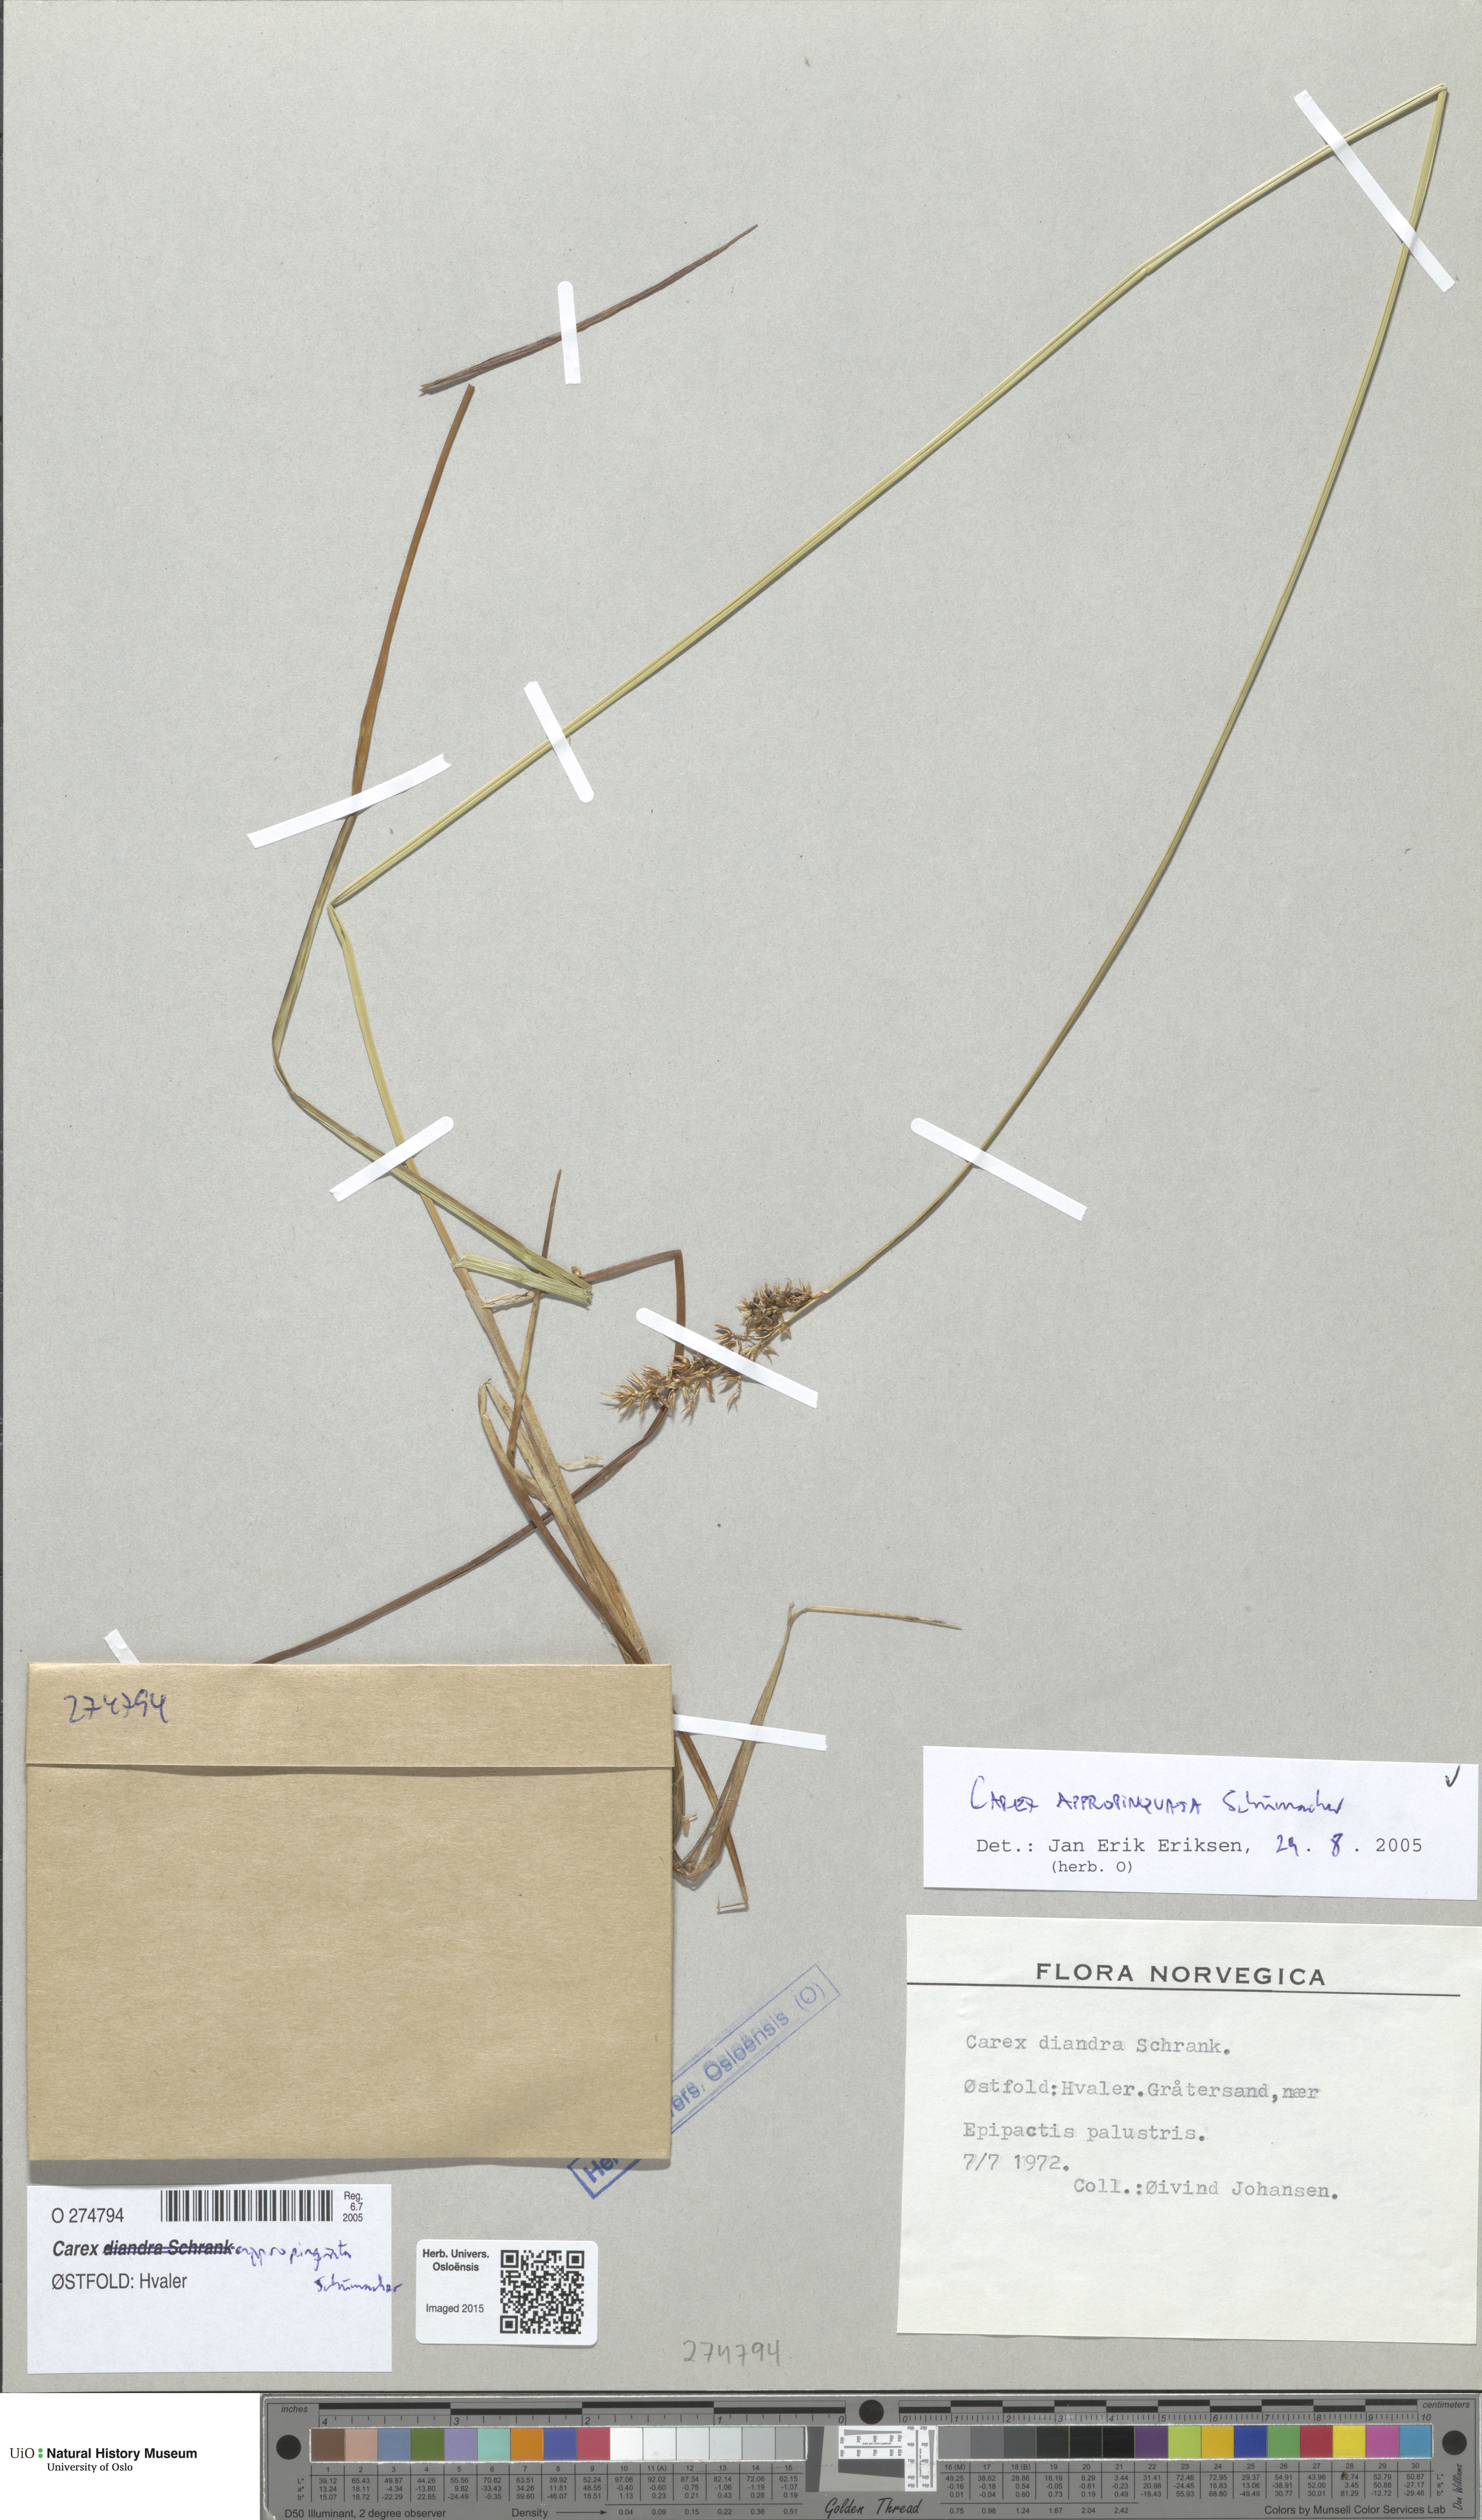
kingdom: Plantae
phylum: Tracheophyta
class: Liliopsida
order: Poales
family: Cyperaceae
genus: Carex
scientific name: Carex appropinquata
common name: Fibrous tussock-sedge
